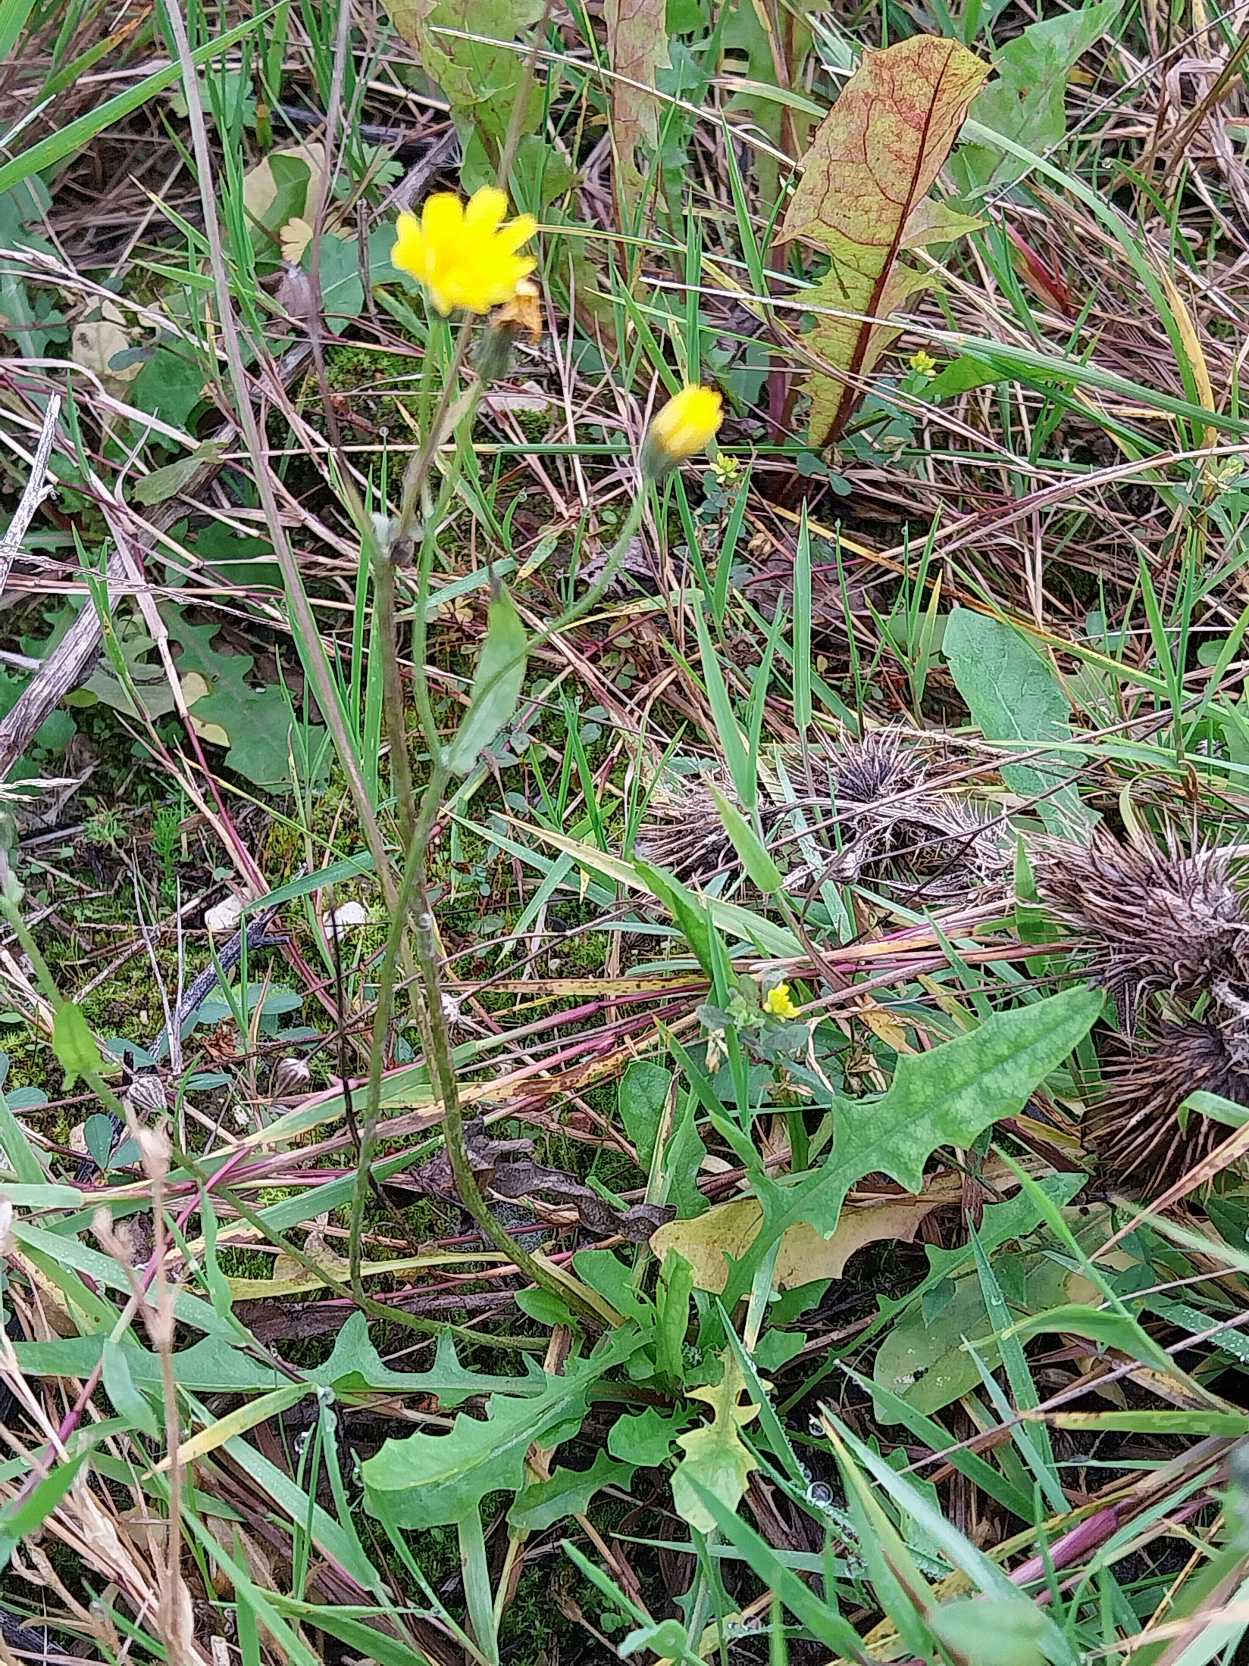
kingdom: Plantae
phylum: Tracheophyta
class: Magnoliopsida
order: Asterales
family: Asteraceae
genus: Crepis
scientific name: Crepis capillaris
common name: Grøn høgeskæg
